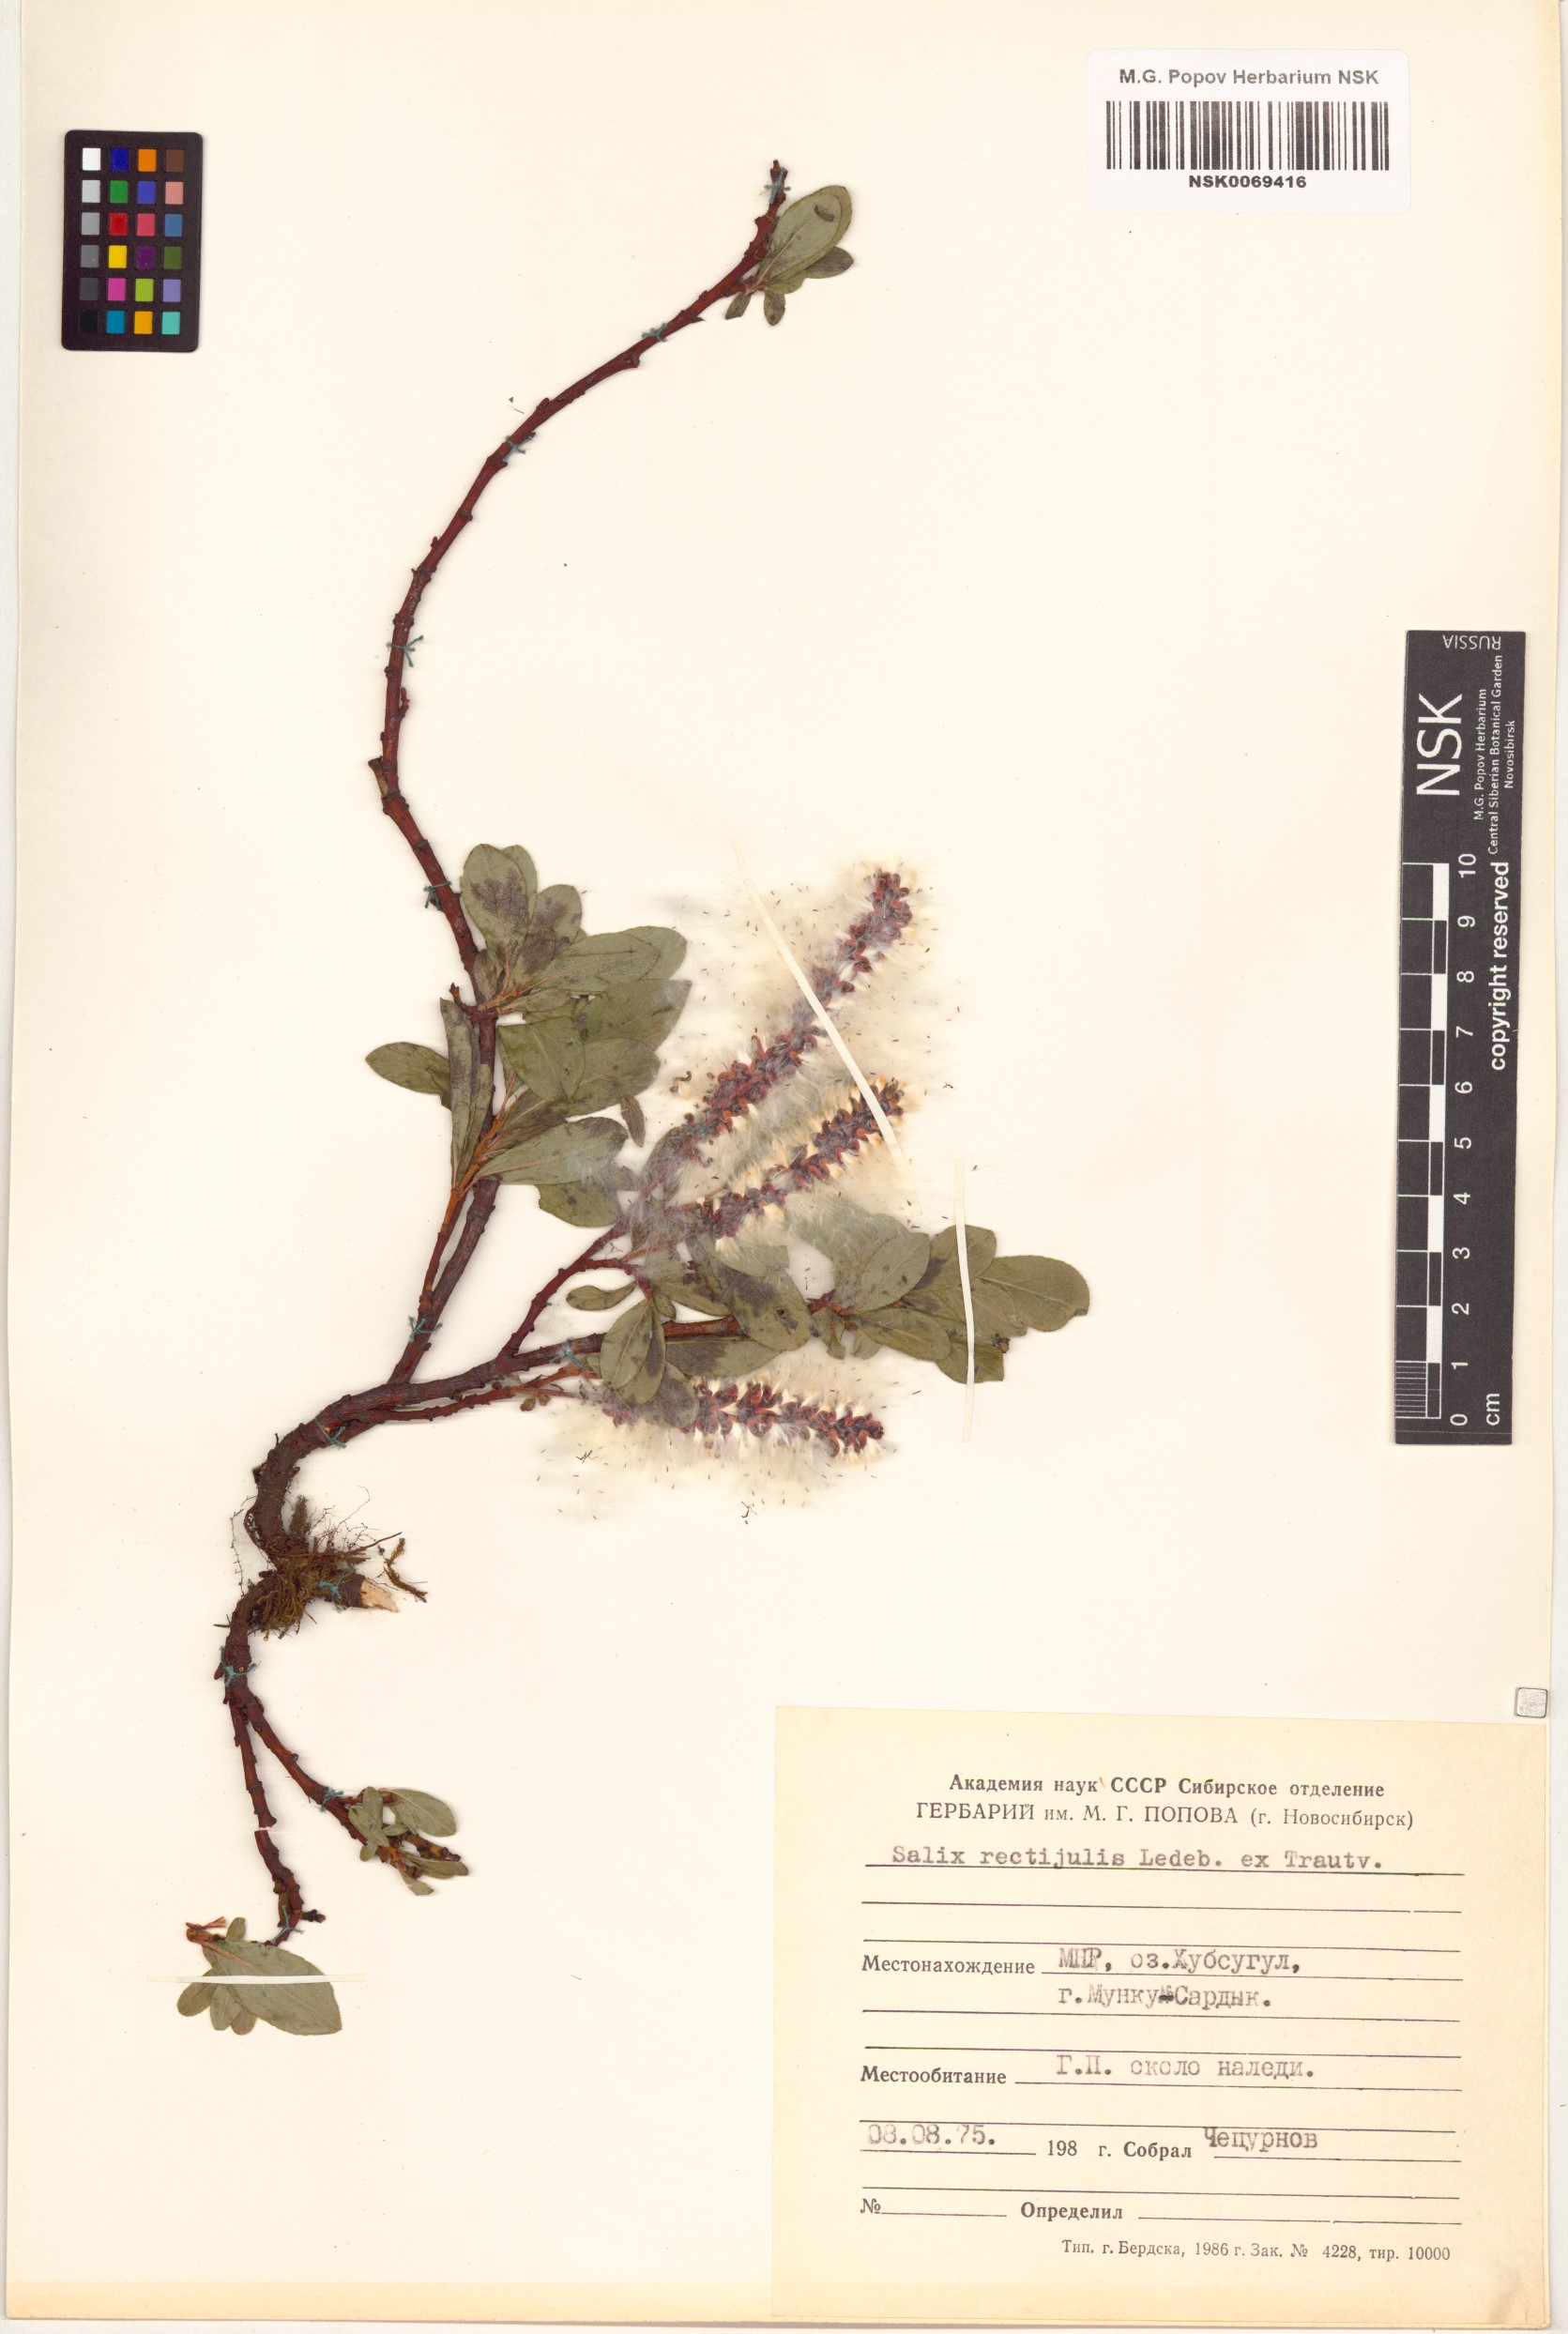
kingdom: Plantae
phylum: Tracheophyta
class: Magnoliopsida
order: Malpighiales
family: Salicaceae
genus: Salix
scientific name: Salix rectijulis
